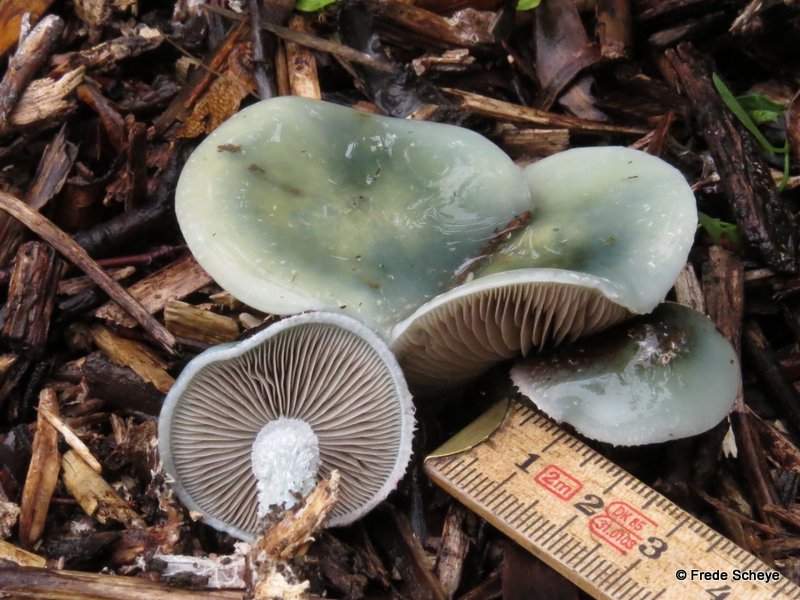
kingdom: Fungi
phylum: Basidiomycota
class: Agaricomycetes
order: Agaricales
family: Strophariaceae
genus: Stropharia
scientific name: Stropharia cyanea
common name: blågrøn bredblad
